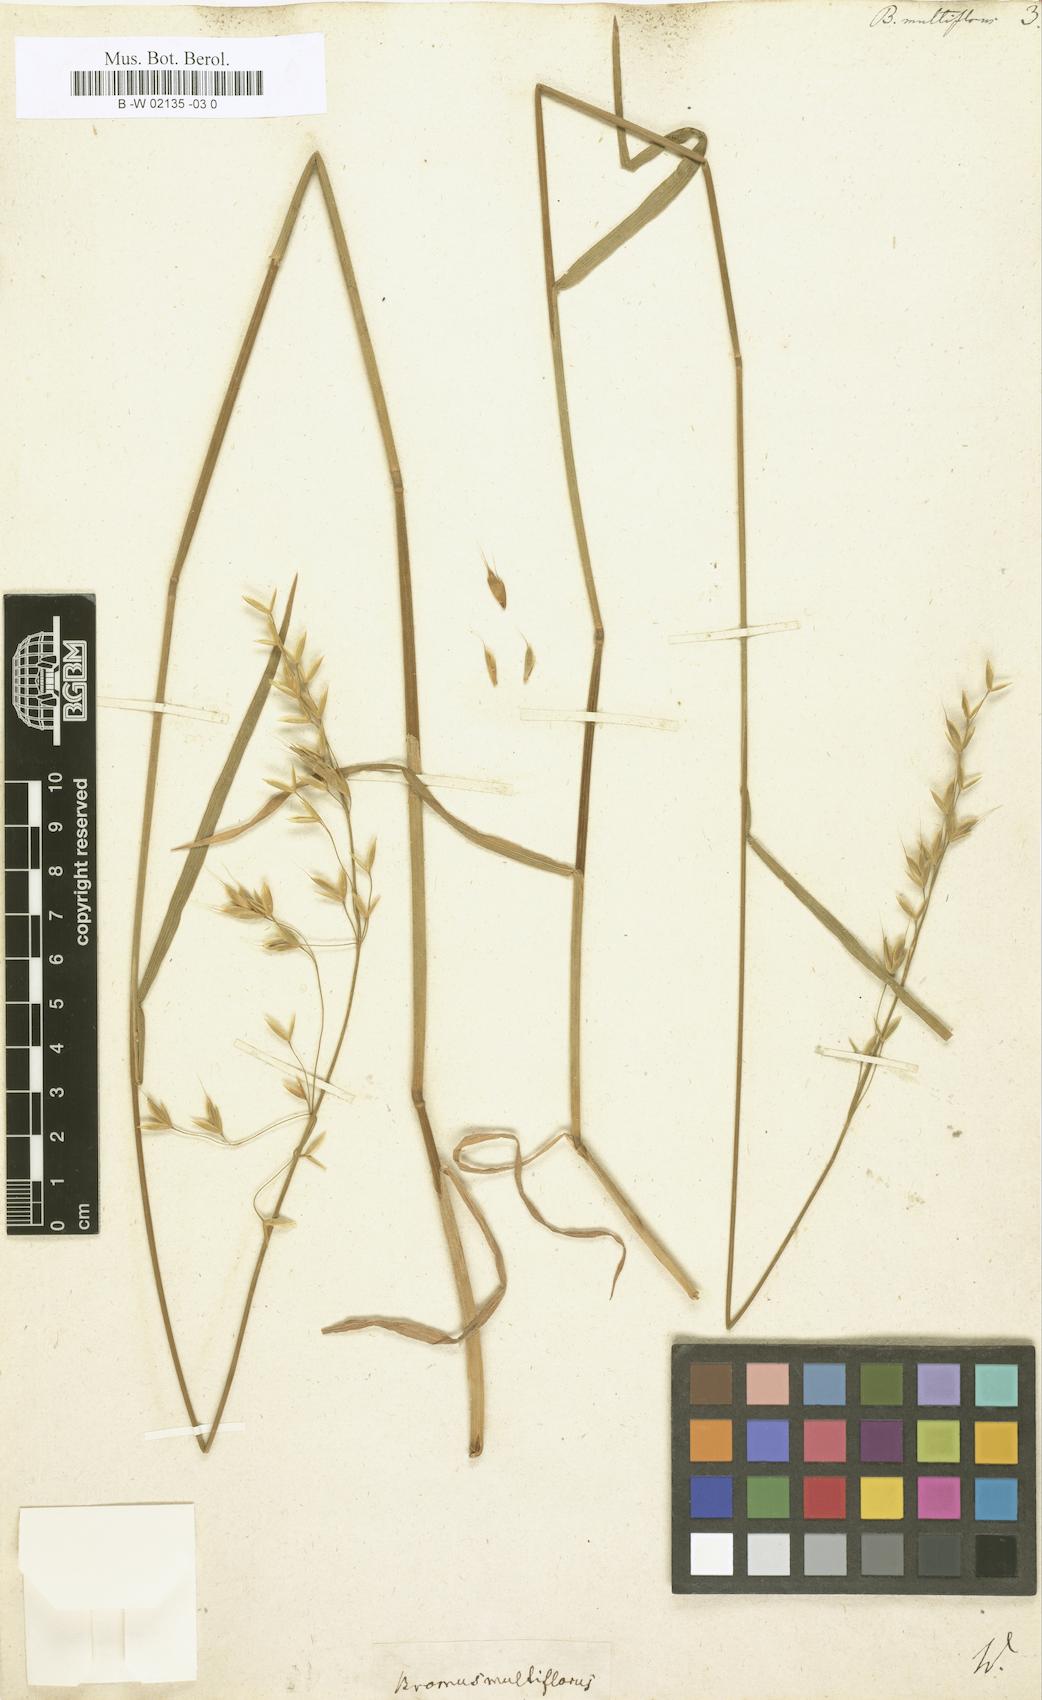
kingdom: Plantae
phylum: Tracheophyta
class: Liliopsida
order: Poales
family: Poaceae
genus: Bromus
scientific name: Bromus arvensis
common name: Field brome
